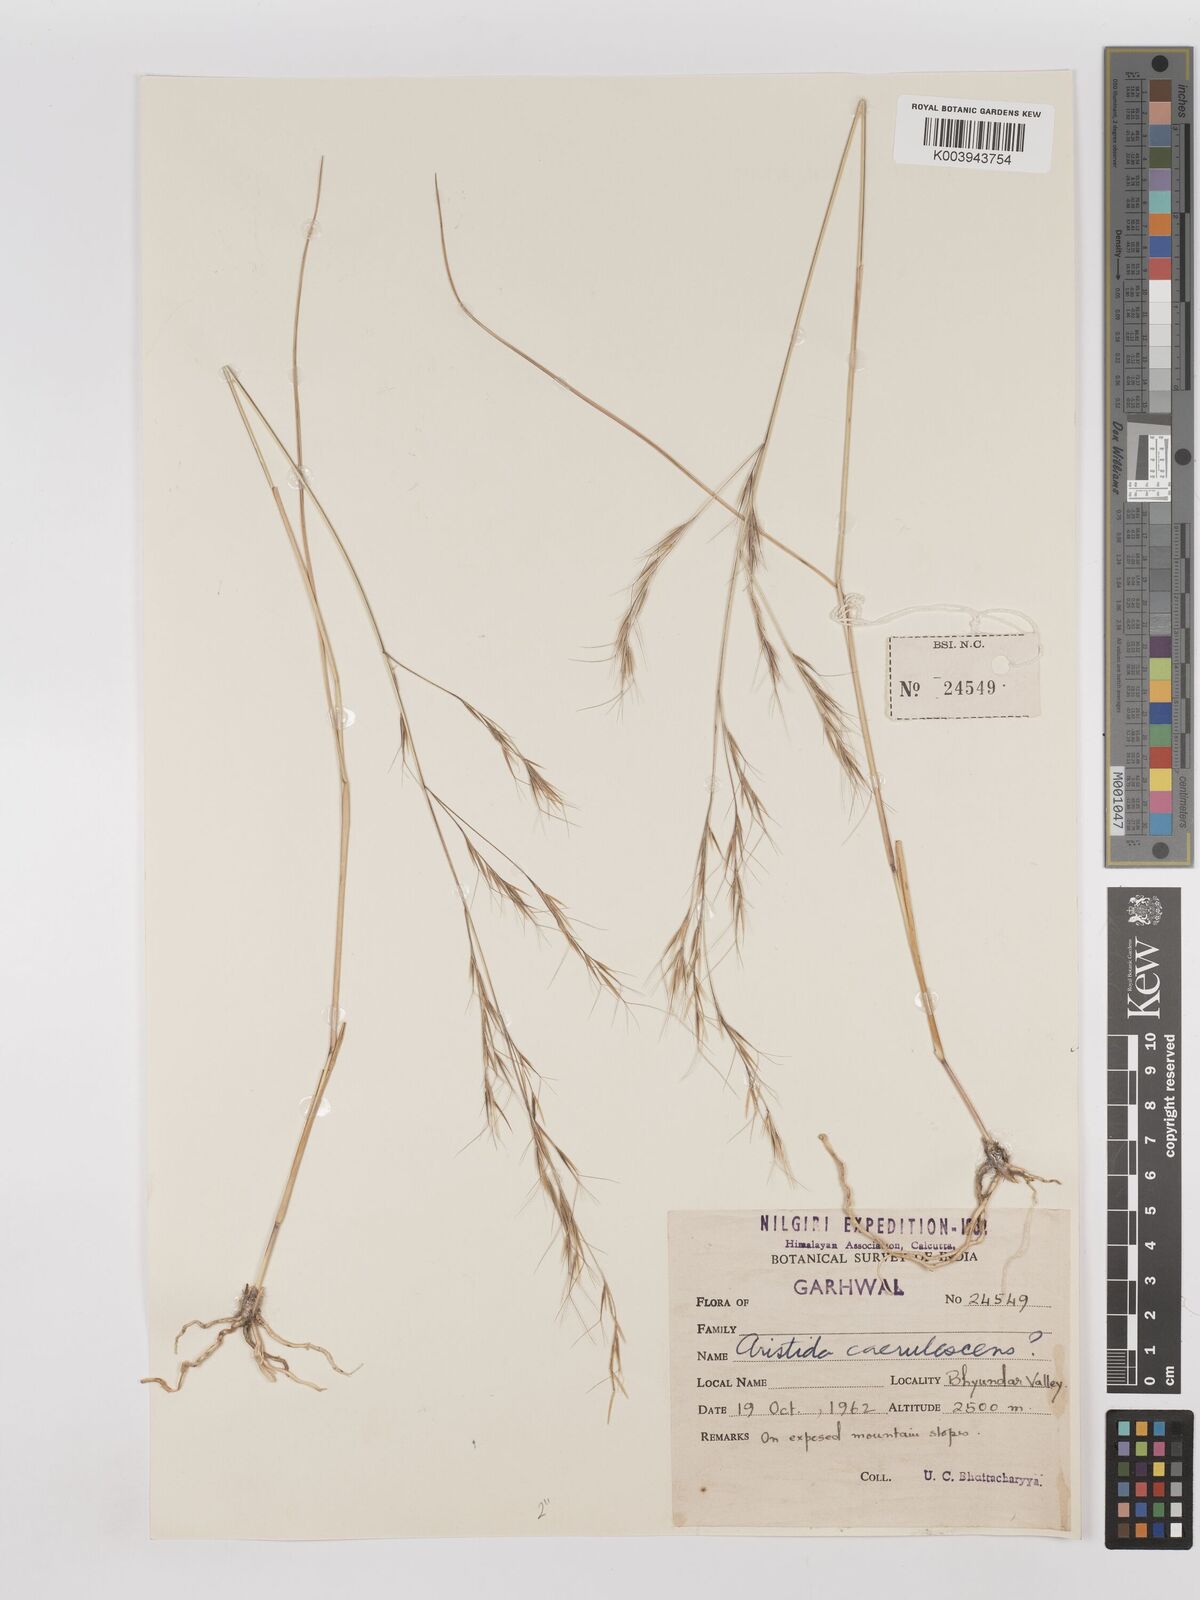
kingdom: Plantae
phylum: Tracheophyta
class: Liliopsida
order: Poales
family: Poaceae
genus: Aristida
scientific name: Aristida adscensionis
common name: Sixweeks threeawn
